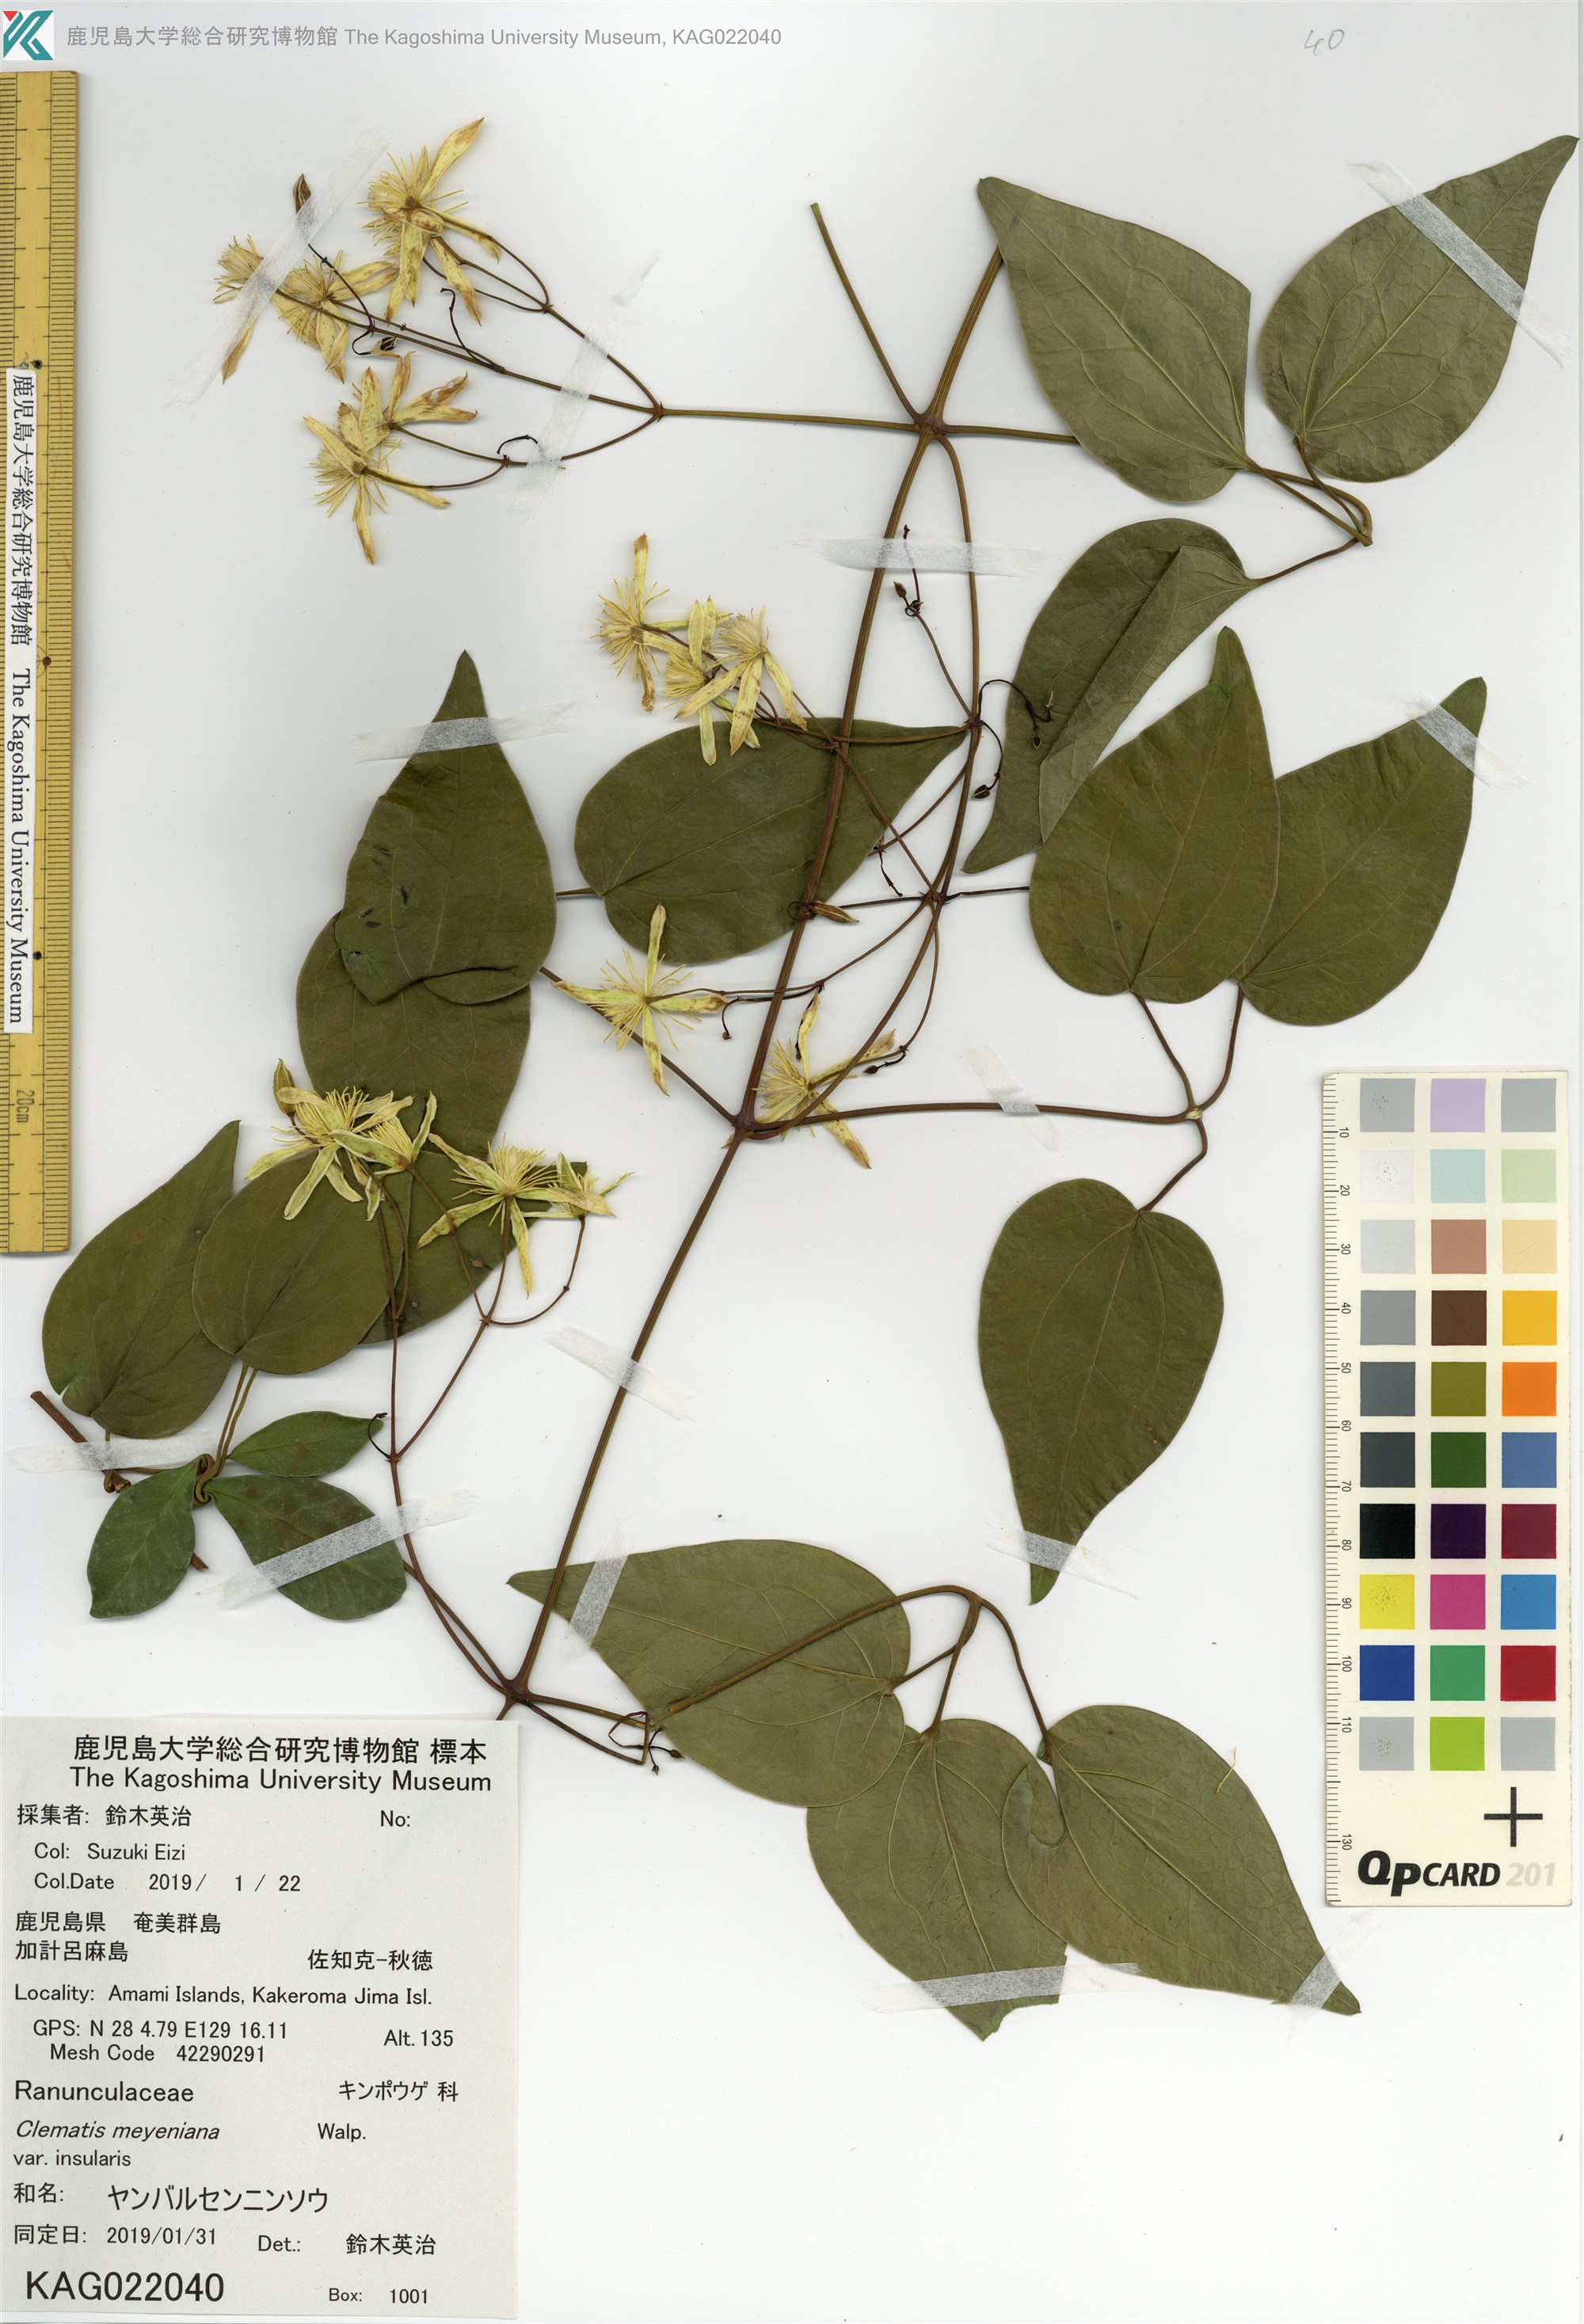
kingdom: Plantae
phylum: Tracheophyta
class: Magnoliopsida
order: Ranunculales
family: Ranunculaceae
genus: Clematis
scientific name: Clematis meyeniana
